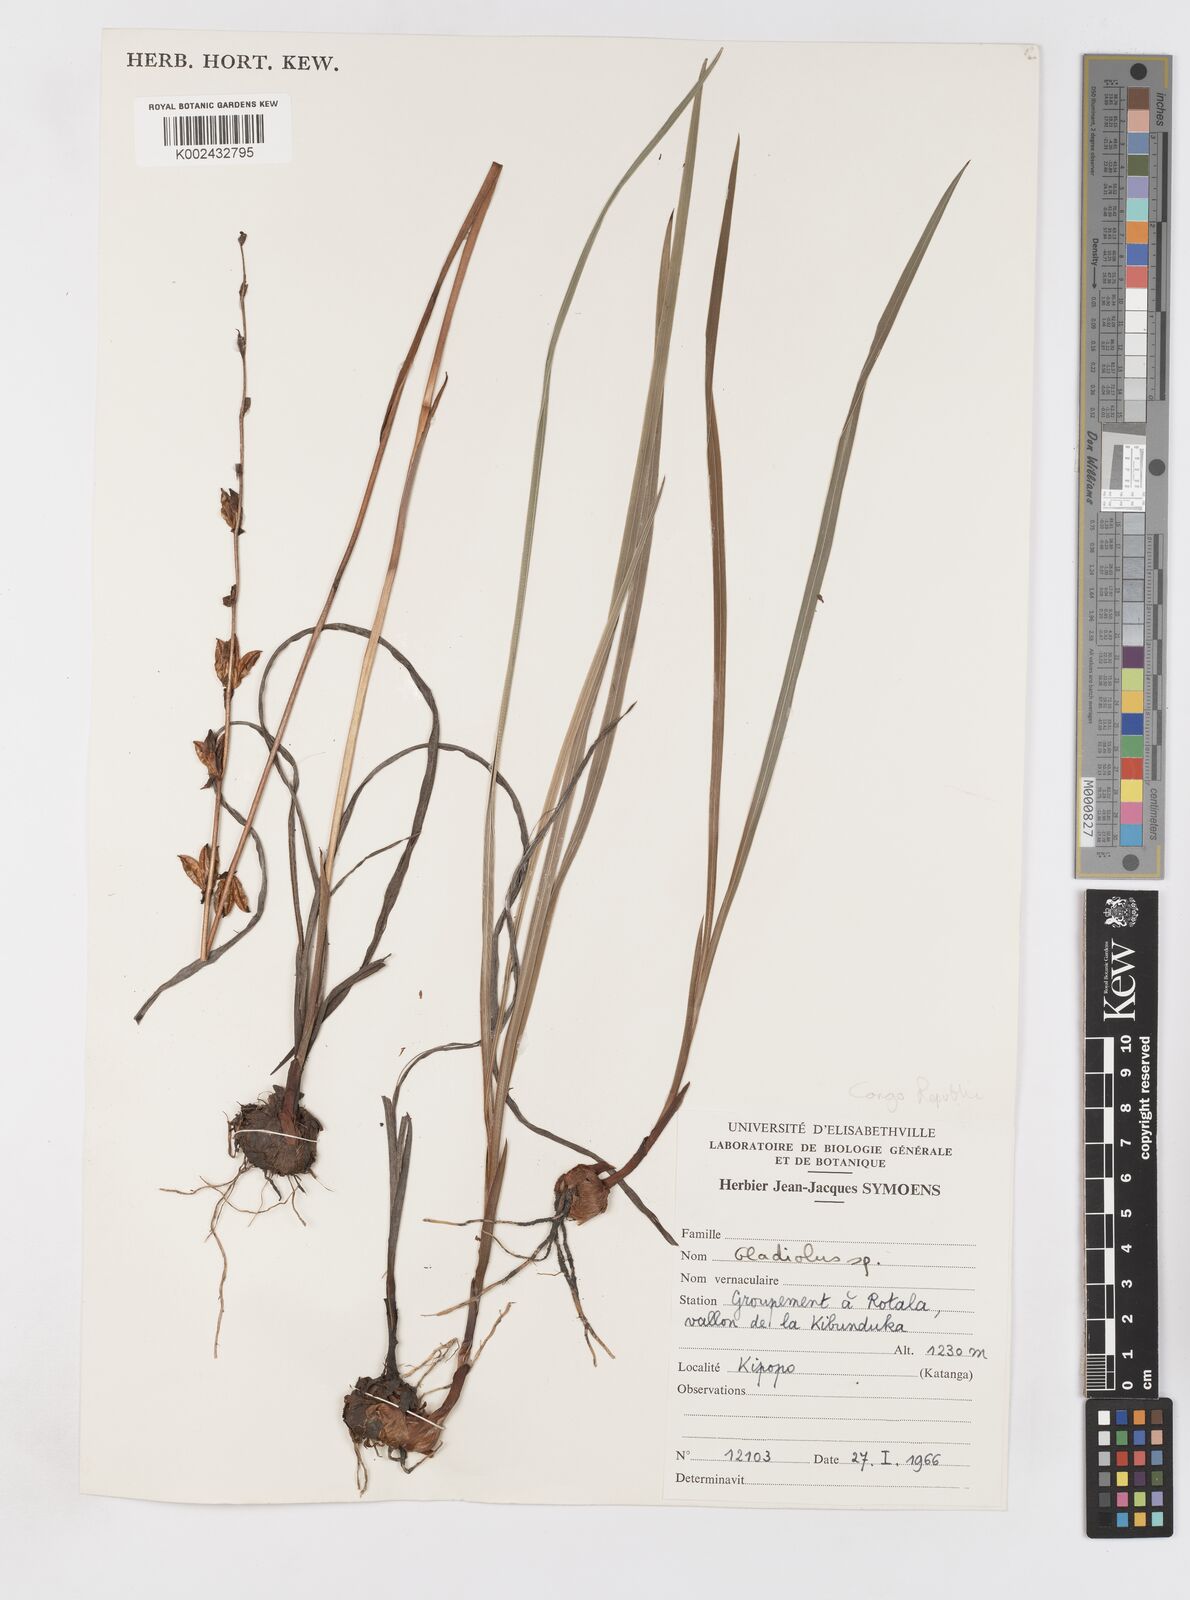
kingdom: Plantae
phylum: Tracheophyta
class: Liliopsida
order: Asparagales
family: Iridaceae
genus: Gladiolus
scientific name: Gladiolus atropurpureus
